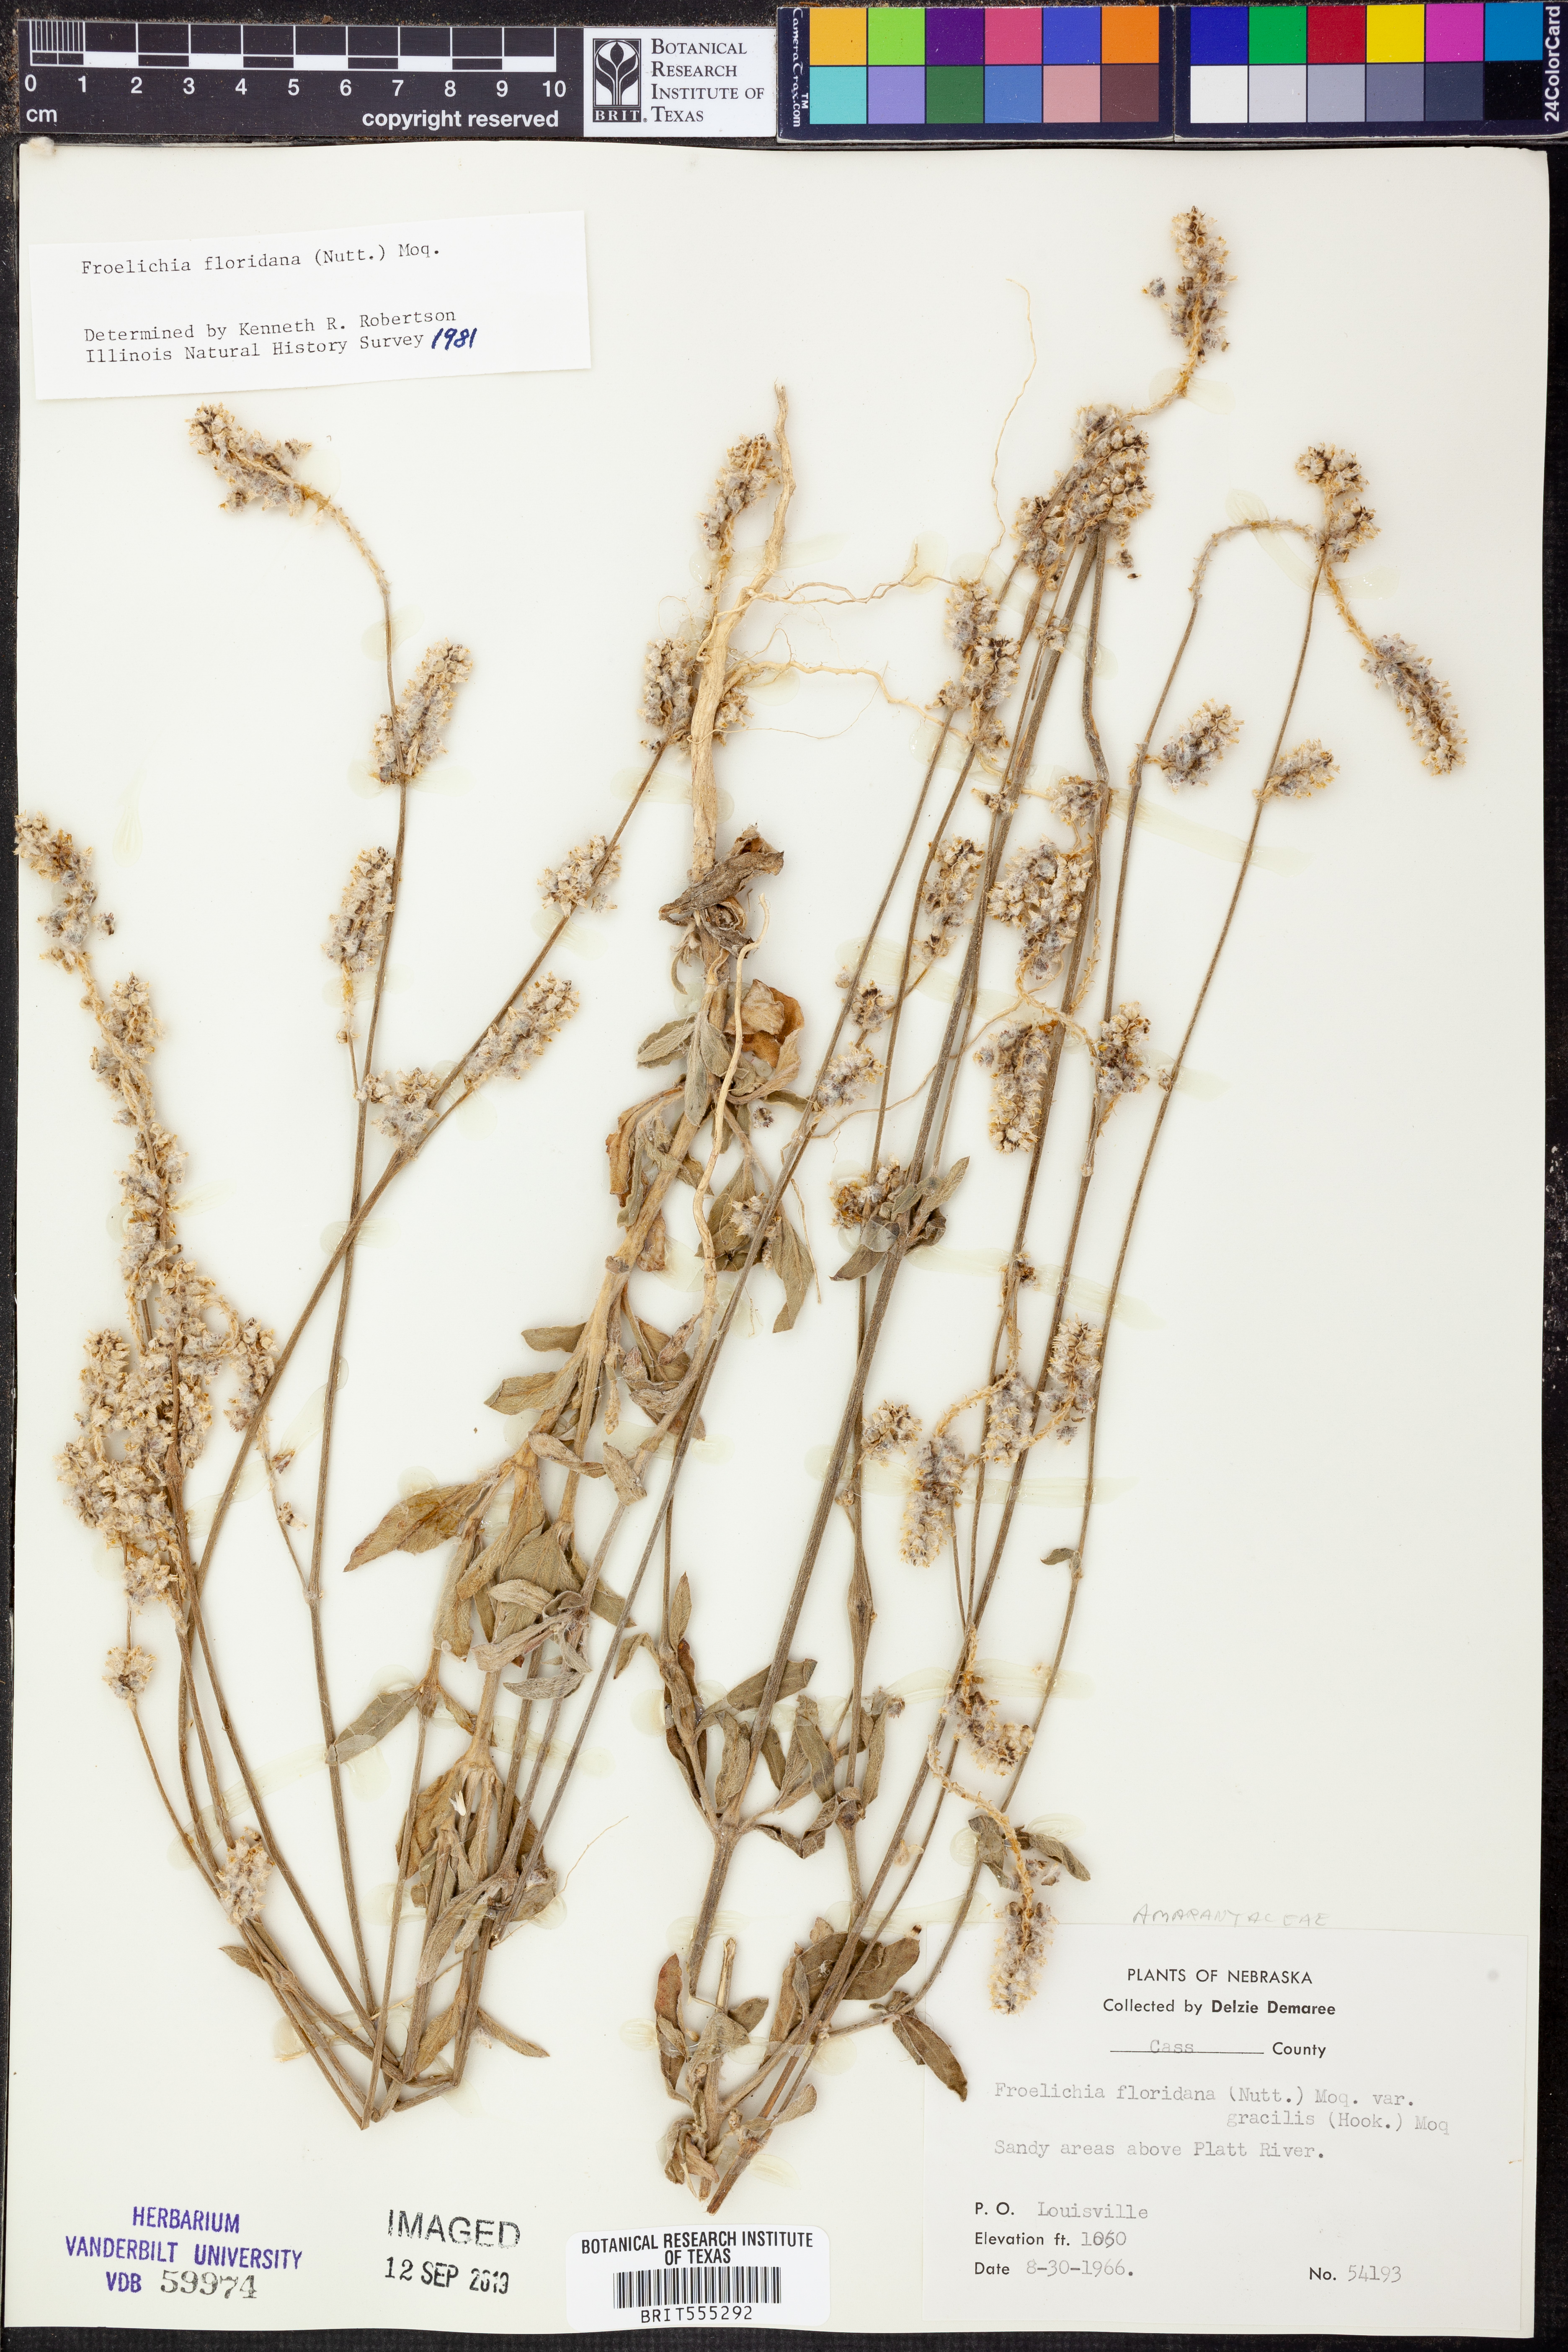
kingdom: Plantae
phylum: Tracheophyta
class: Magnoliopsida
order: Caryophyllales
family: Amaranthaceae
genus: Froelichia
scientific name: Froelichia floridana
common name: Florida snake-cotton
